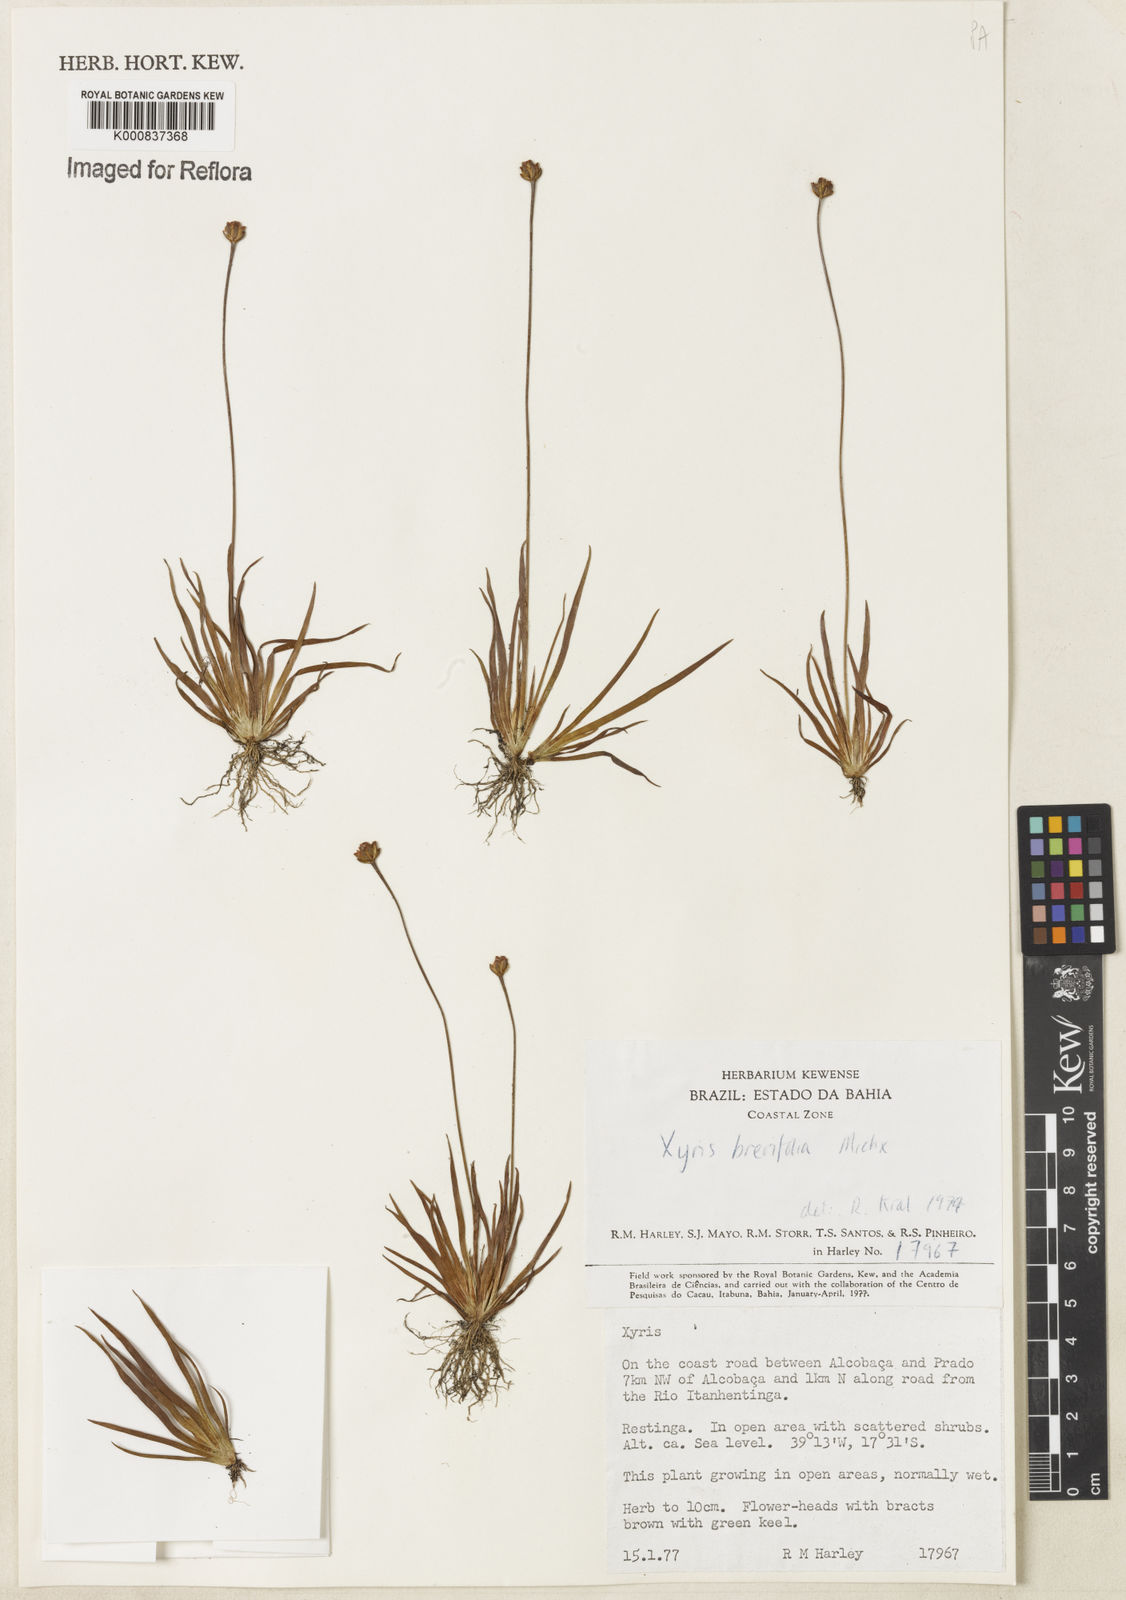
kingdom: Plantae
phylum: Tracheophyta
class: Liliopsida
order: Poales
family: Xyridaceae
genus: Xyris
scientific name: Xyris brevifolia
